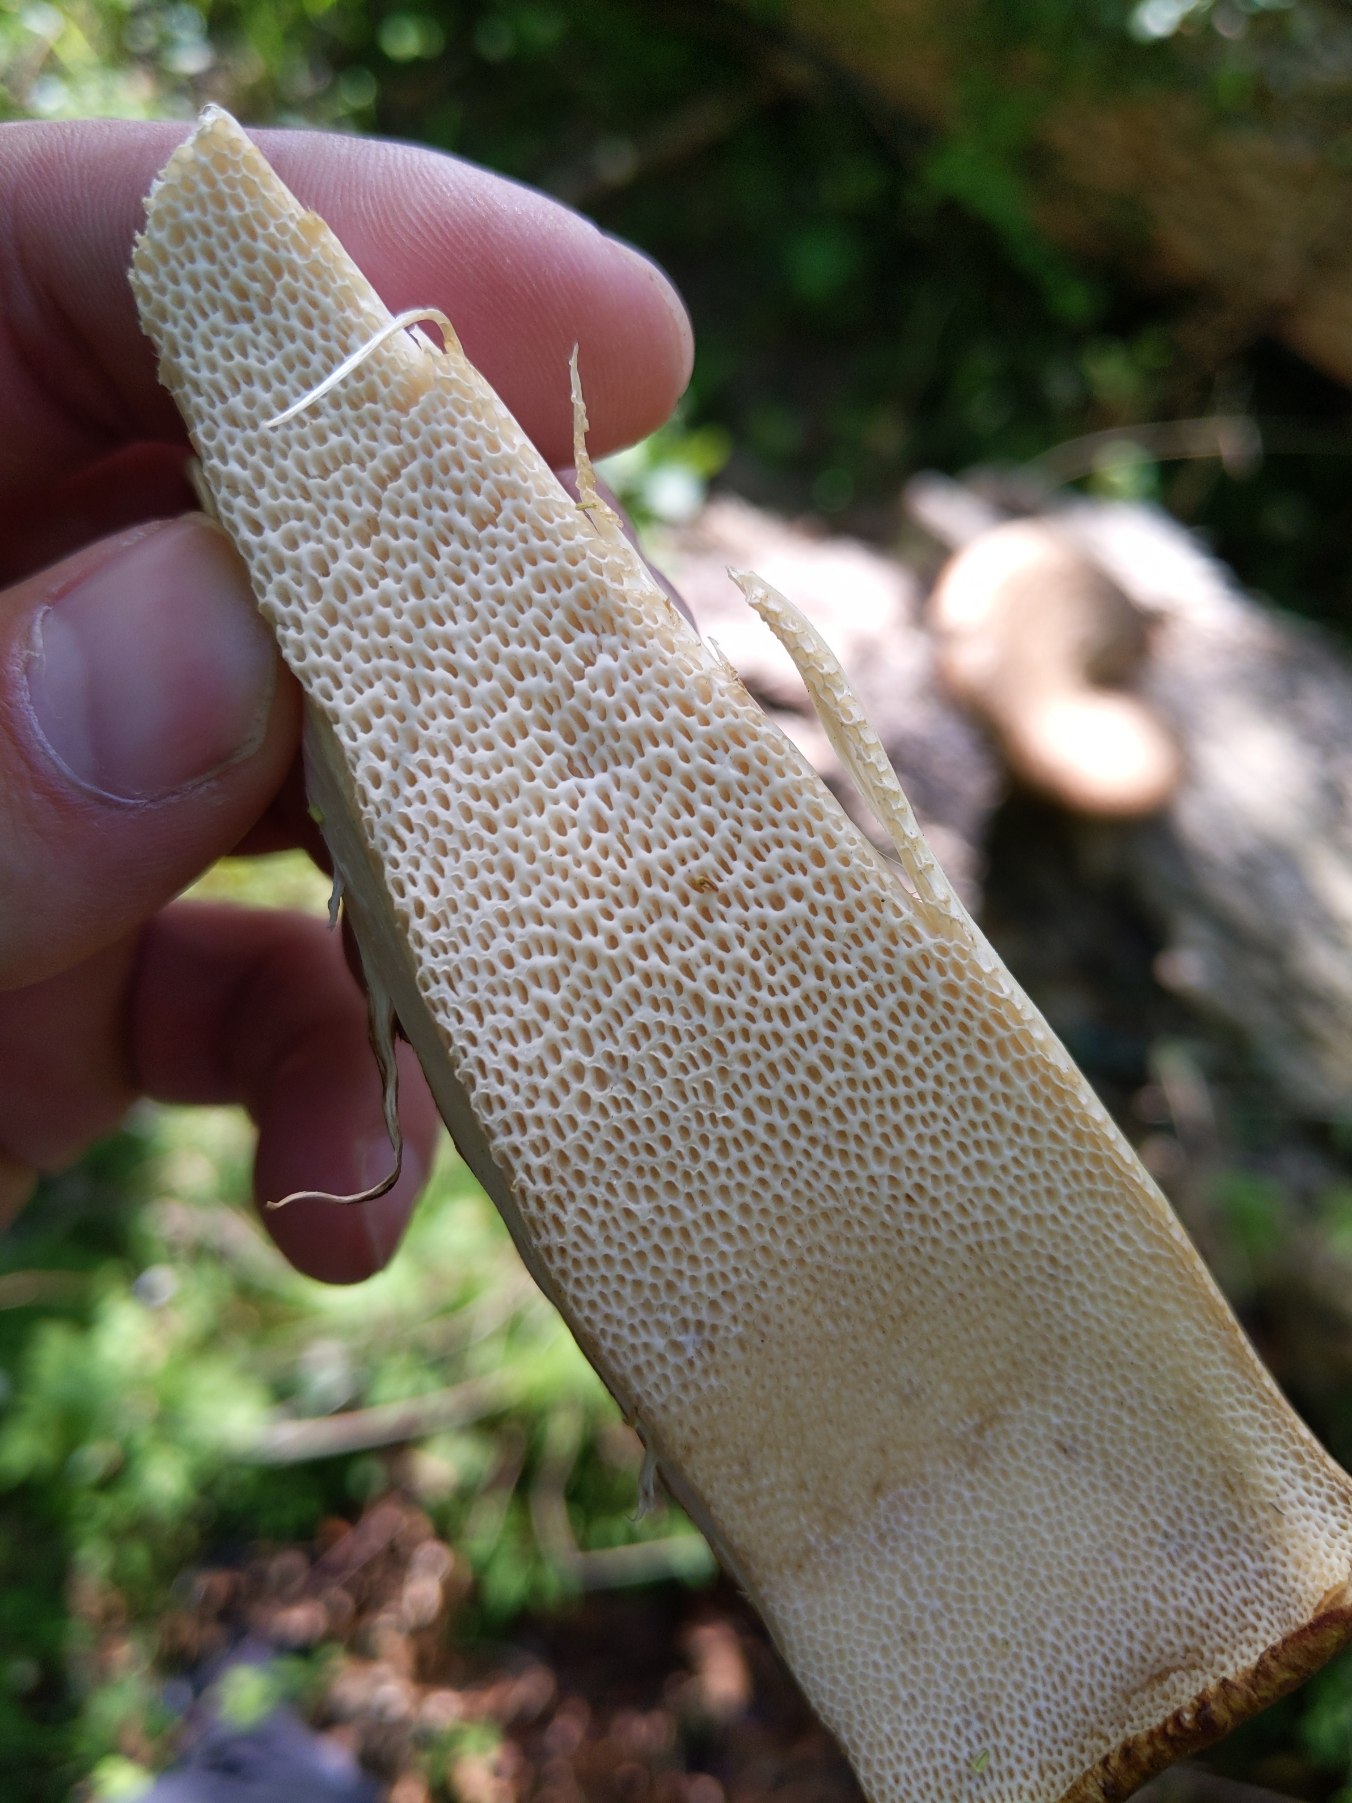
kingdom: Fungi
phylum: Basidiomycota
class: Agaricomycetes
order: Polyporales
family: Polyporaceae
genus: Cerioporus
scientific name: Cerioporus squamosus
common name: Skællet stilkporesvamp
